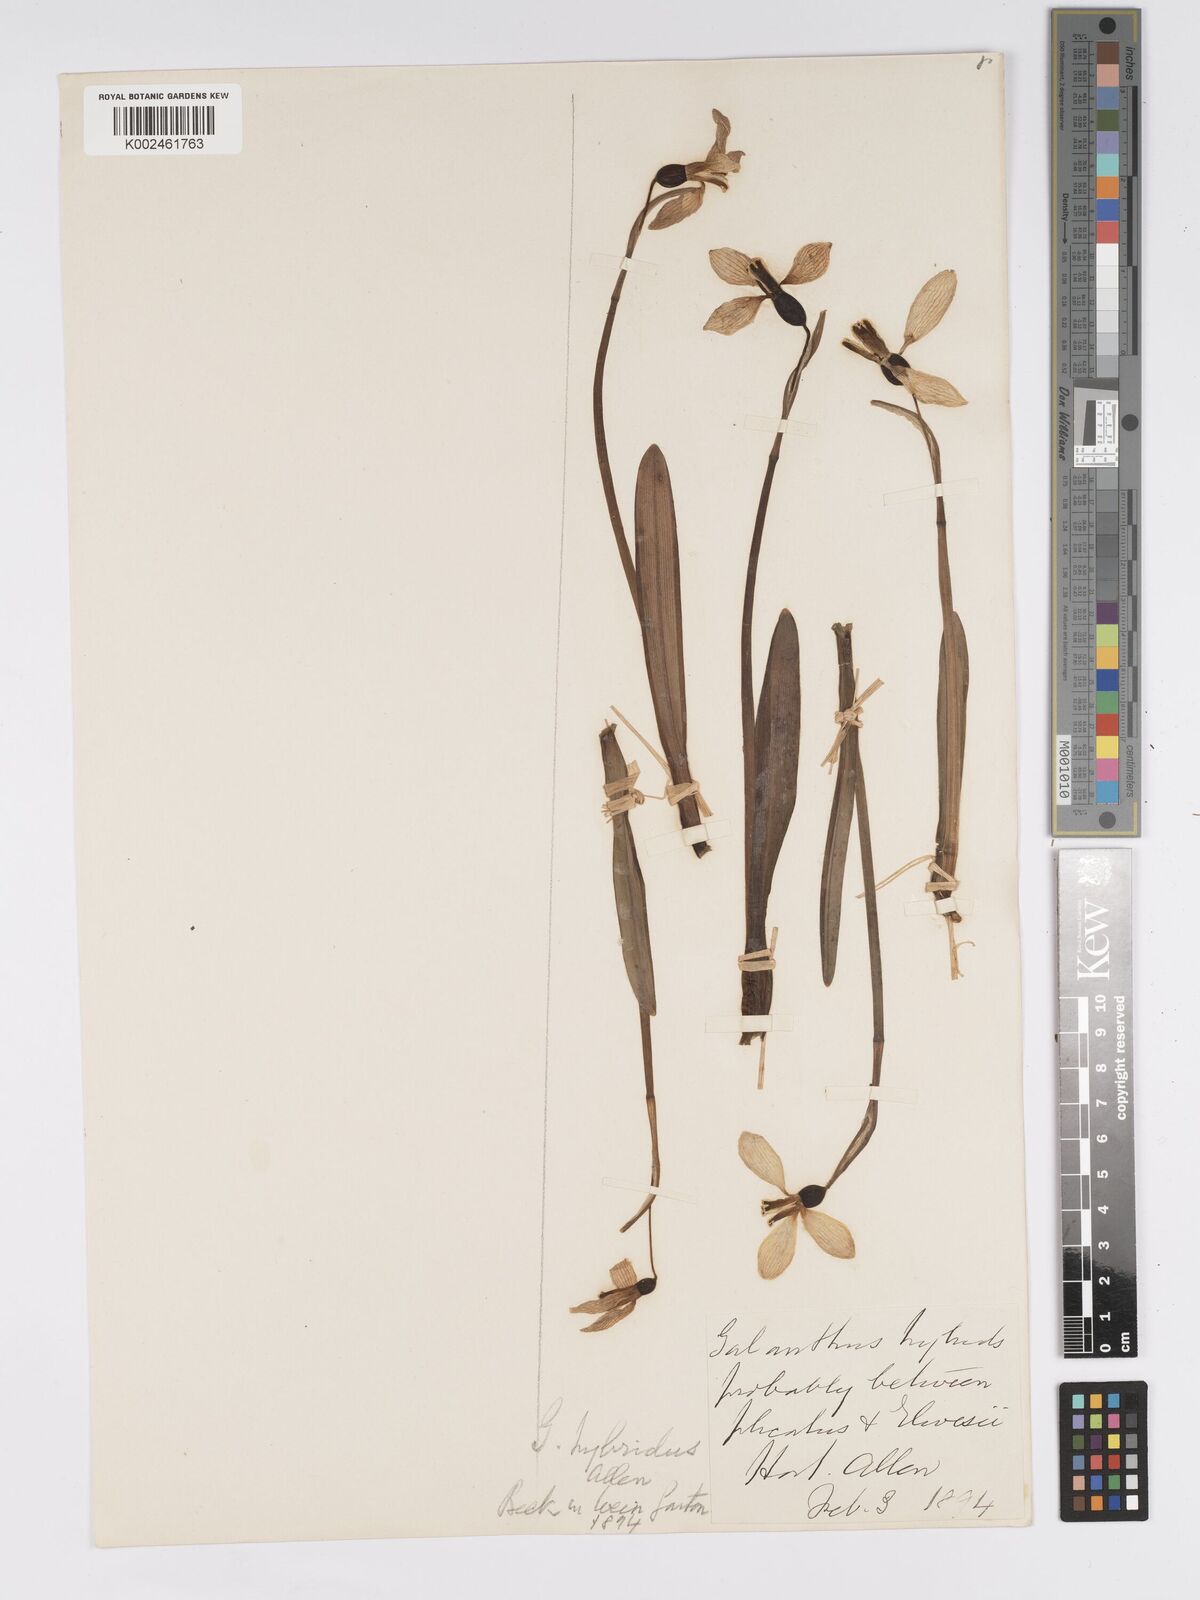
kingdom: Plantae
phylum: Tracheophyta
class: Liliopsida
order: Asparagales
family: Amaryllidaceae
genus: Galanthus
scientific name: Galanthus hybridus
